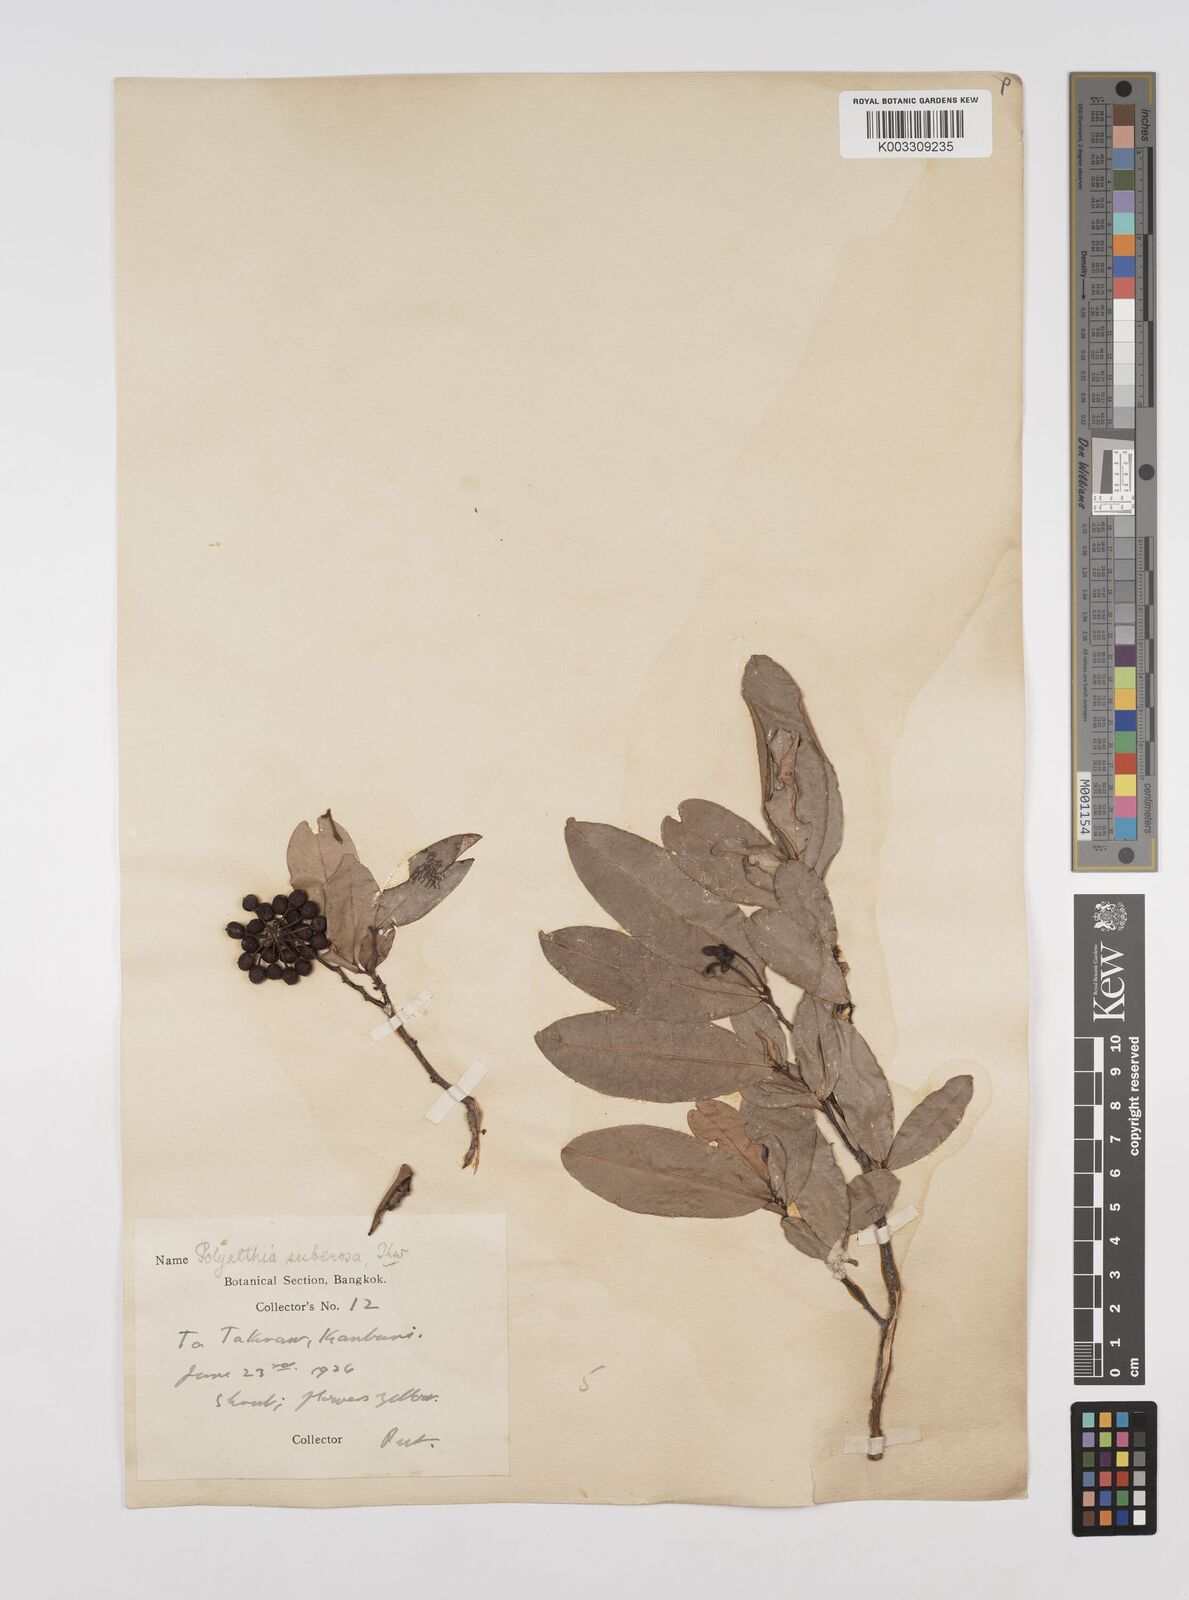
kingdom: Plantae
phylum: Tracheophyta
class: Magnoliopsida
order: Magnoliales
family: Annonaceae
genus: Polyalthia
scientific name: Polyalthia suberosa
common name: Polyalthia plant
